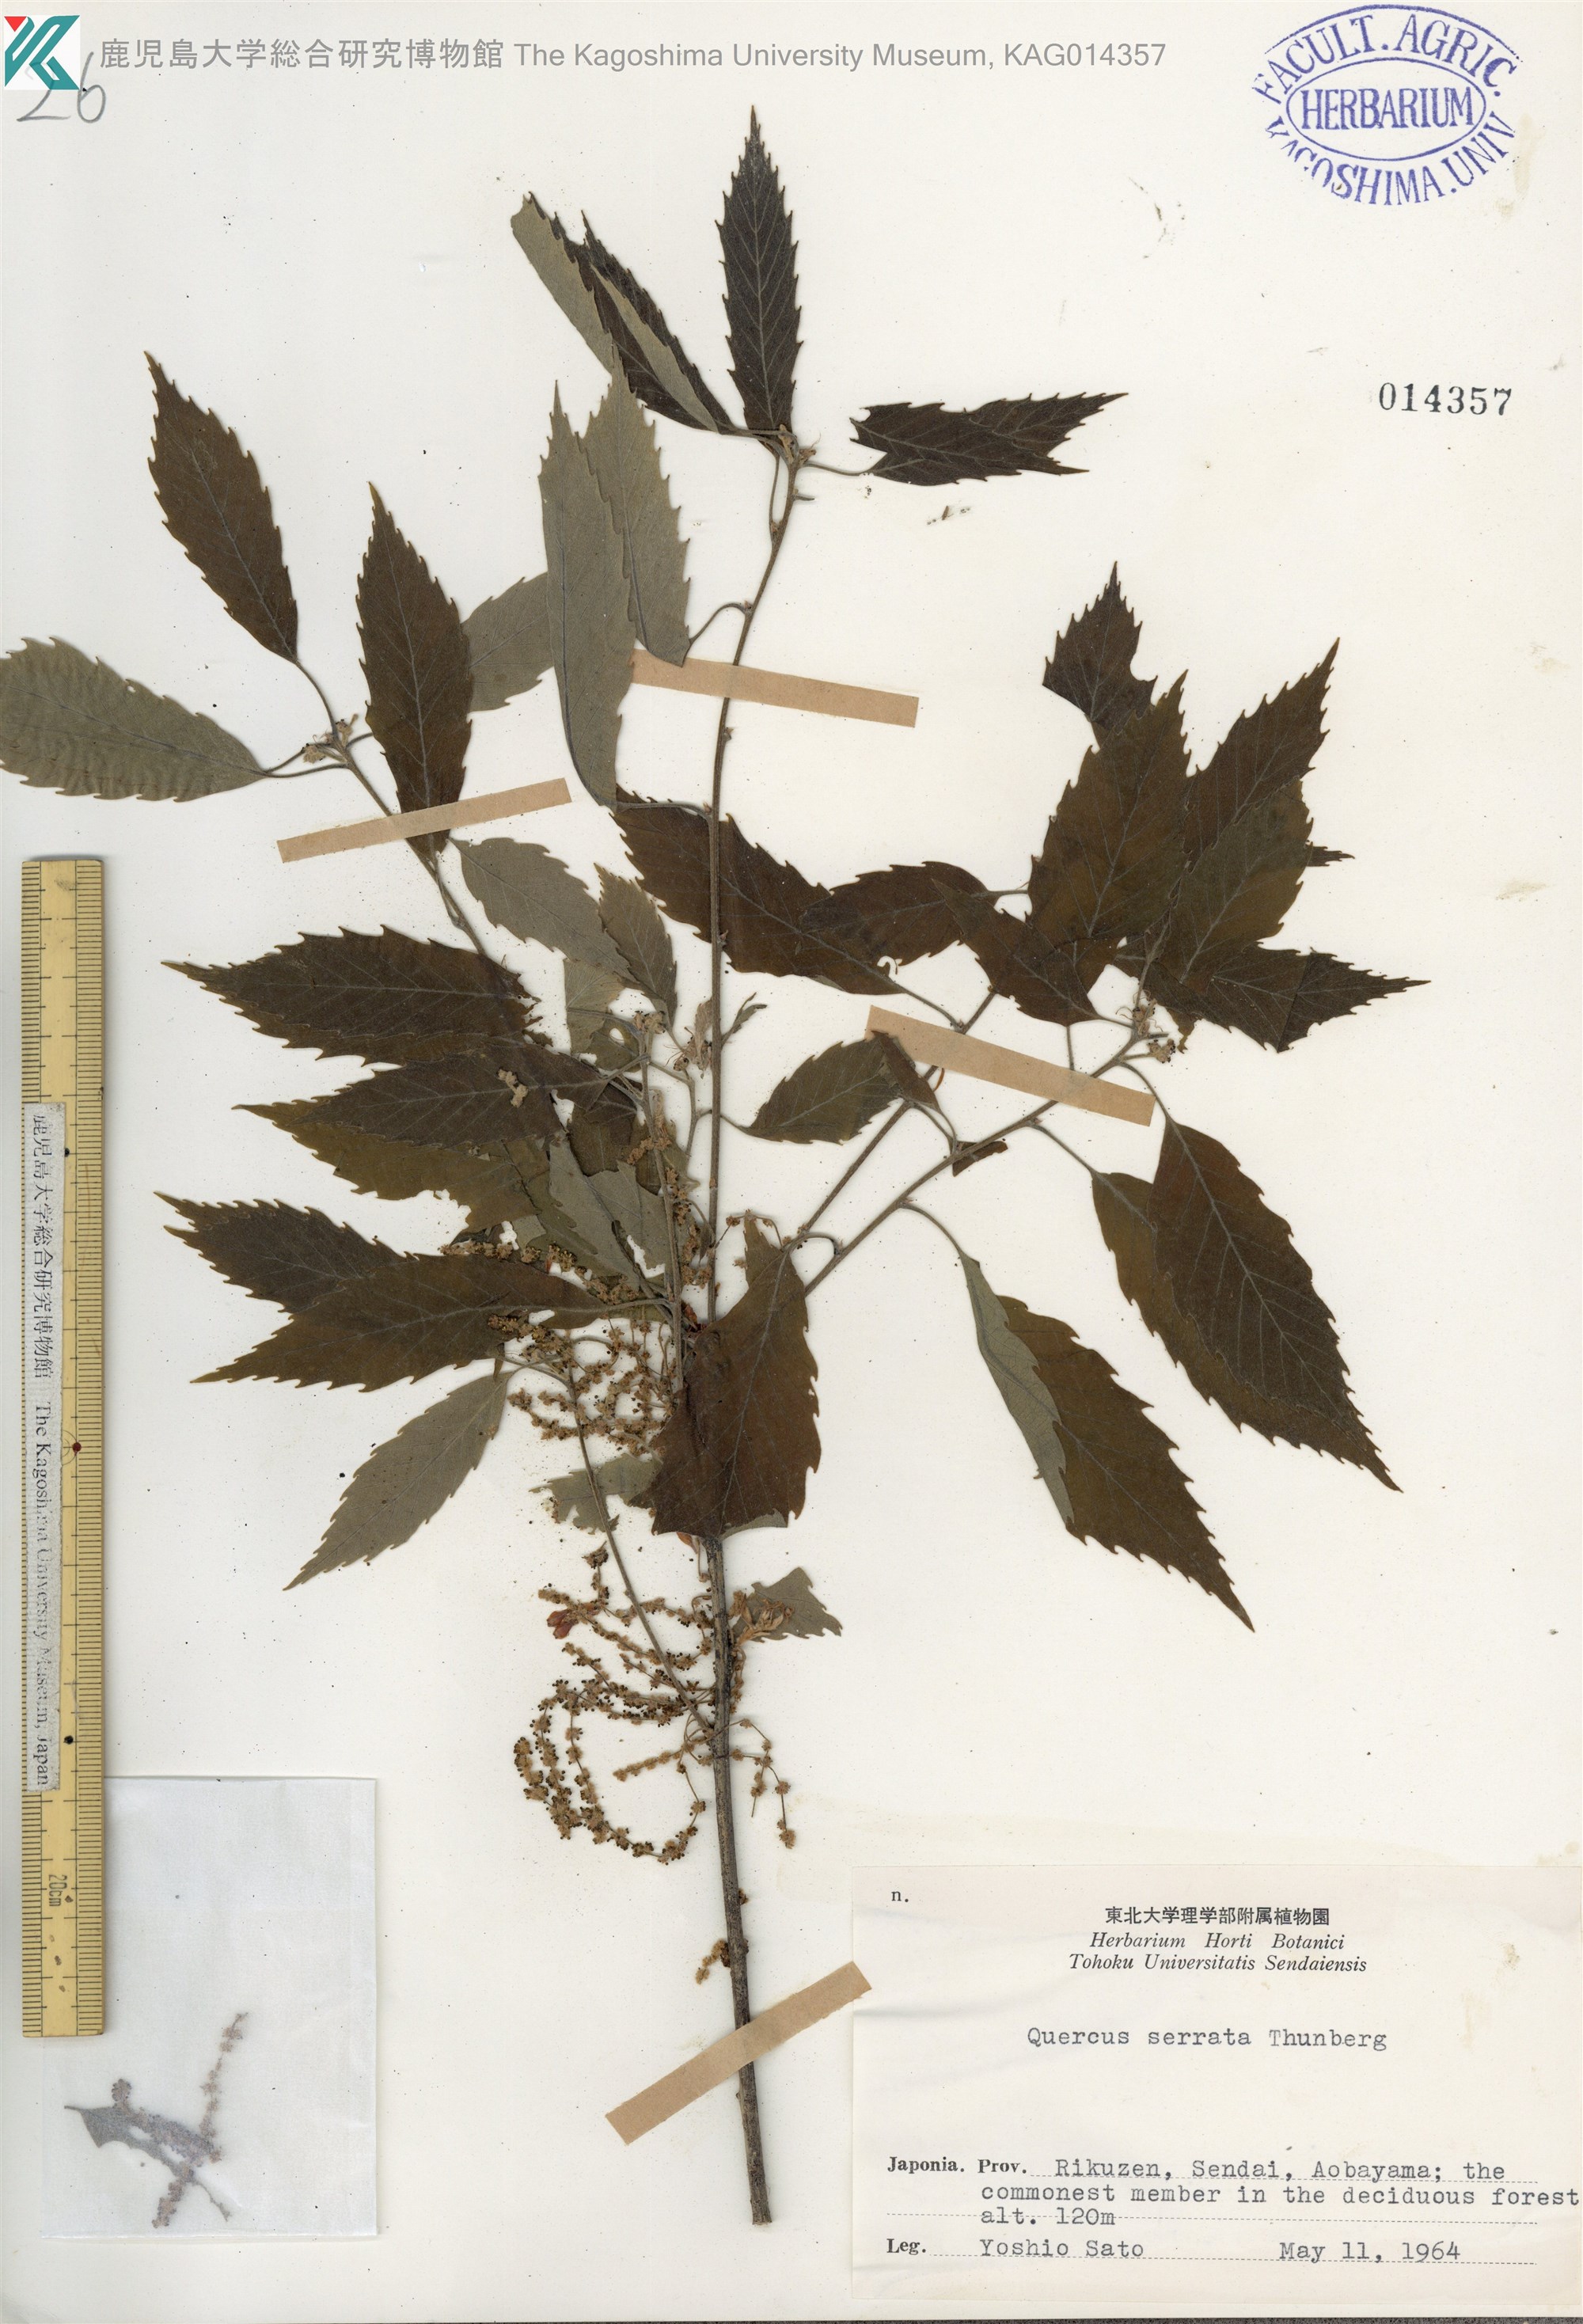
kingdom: Plantae
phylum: Tracheophyta
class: Magnoliopsida
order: Fagales
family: Fagaceae
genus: Quercus
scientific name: Quercus serrata
